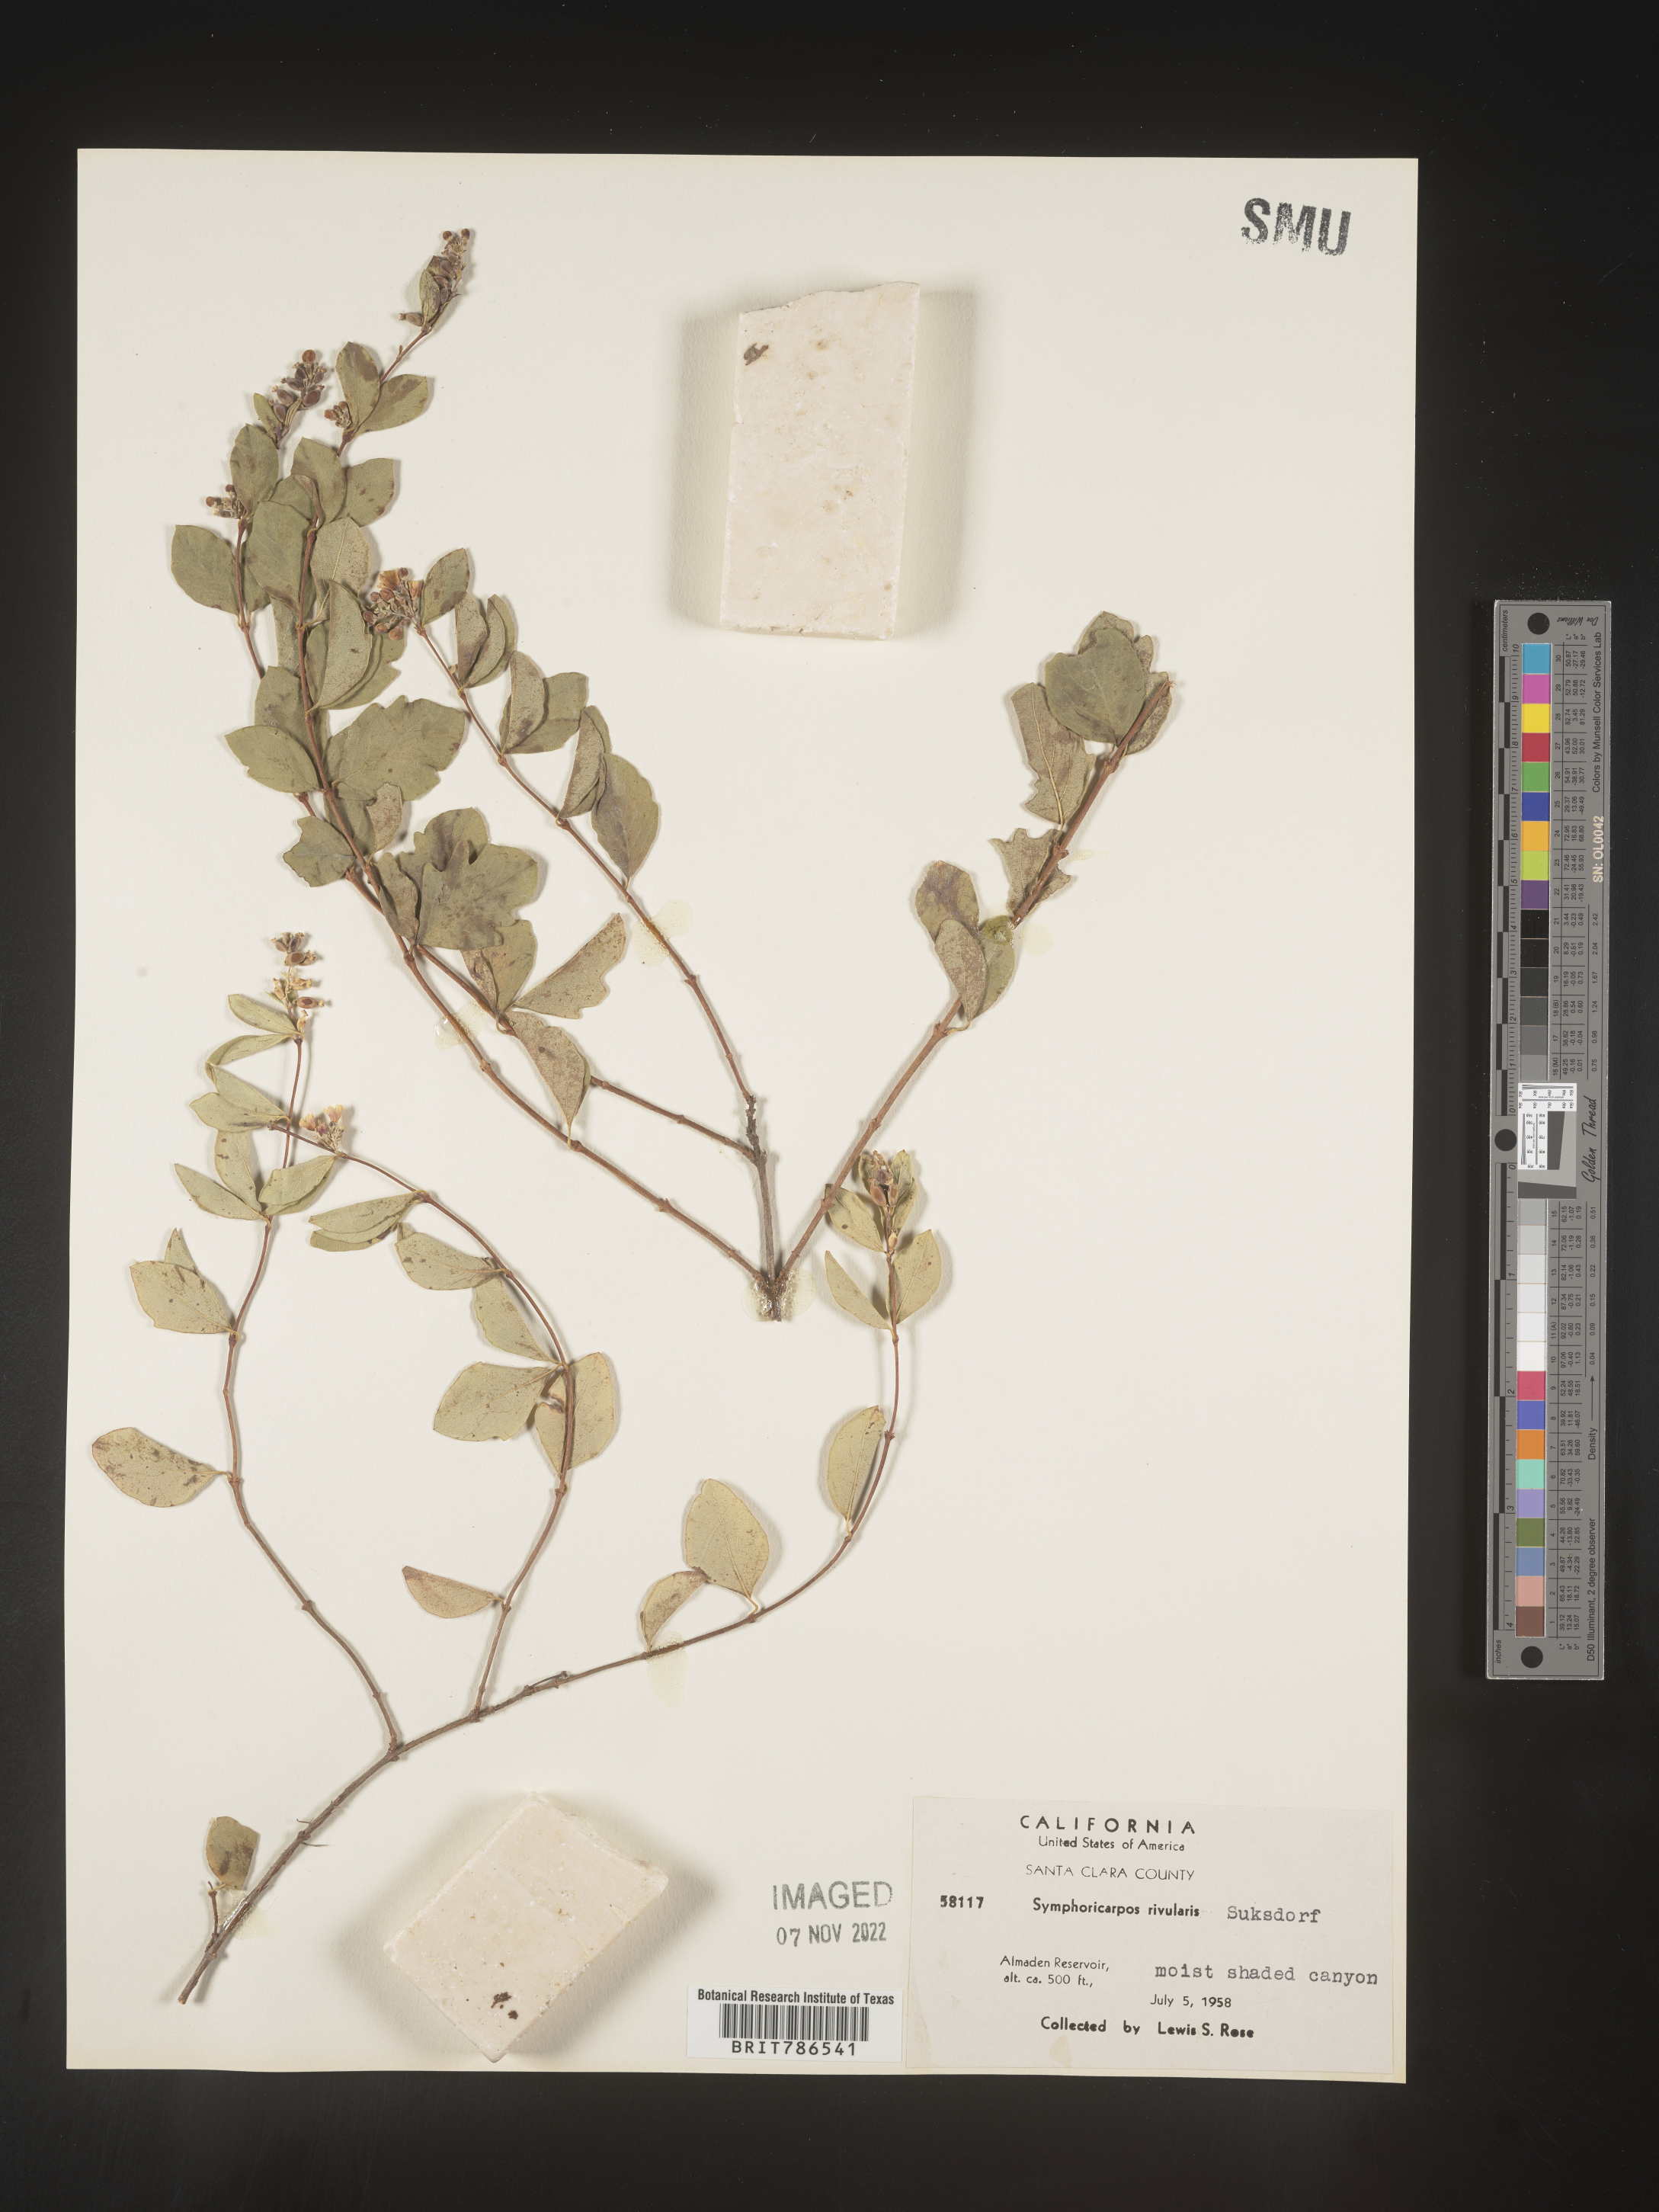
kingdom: Plantae
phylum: Tracheophyta
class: Magnoliopsida
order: Dipsacales
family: Caprifoliaceae
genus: Symphoricarpos
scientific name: Symphoricarpos
